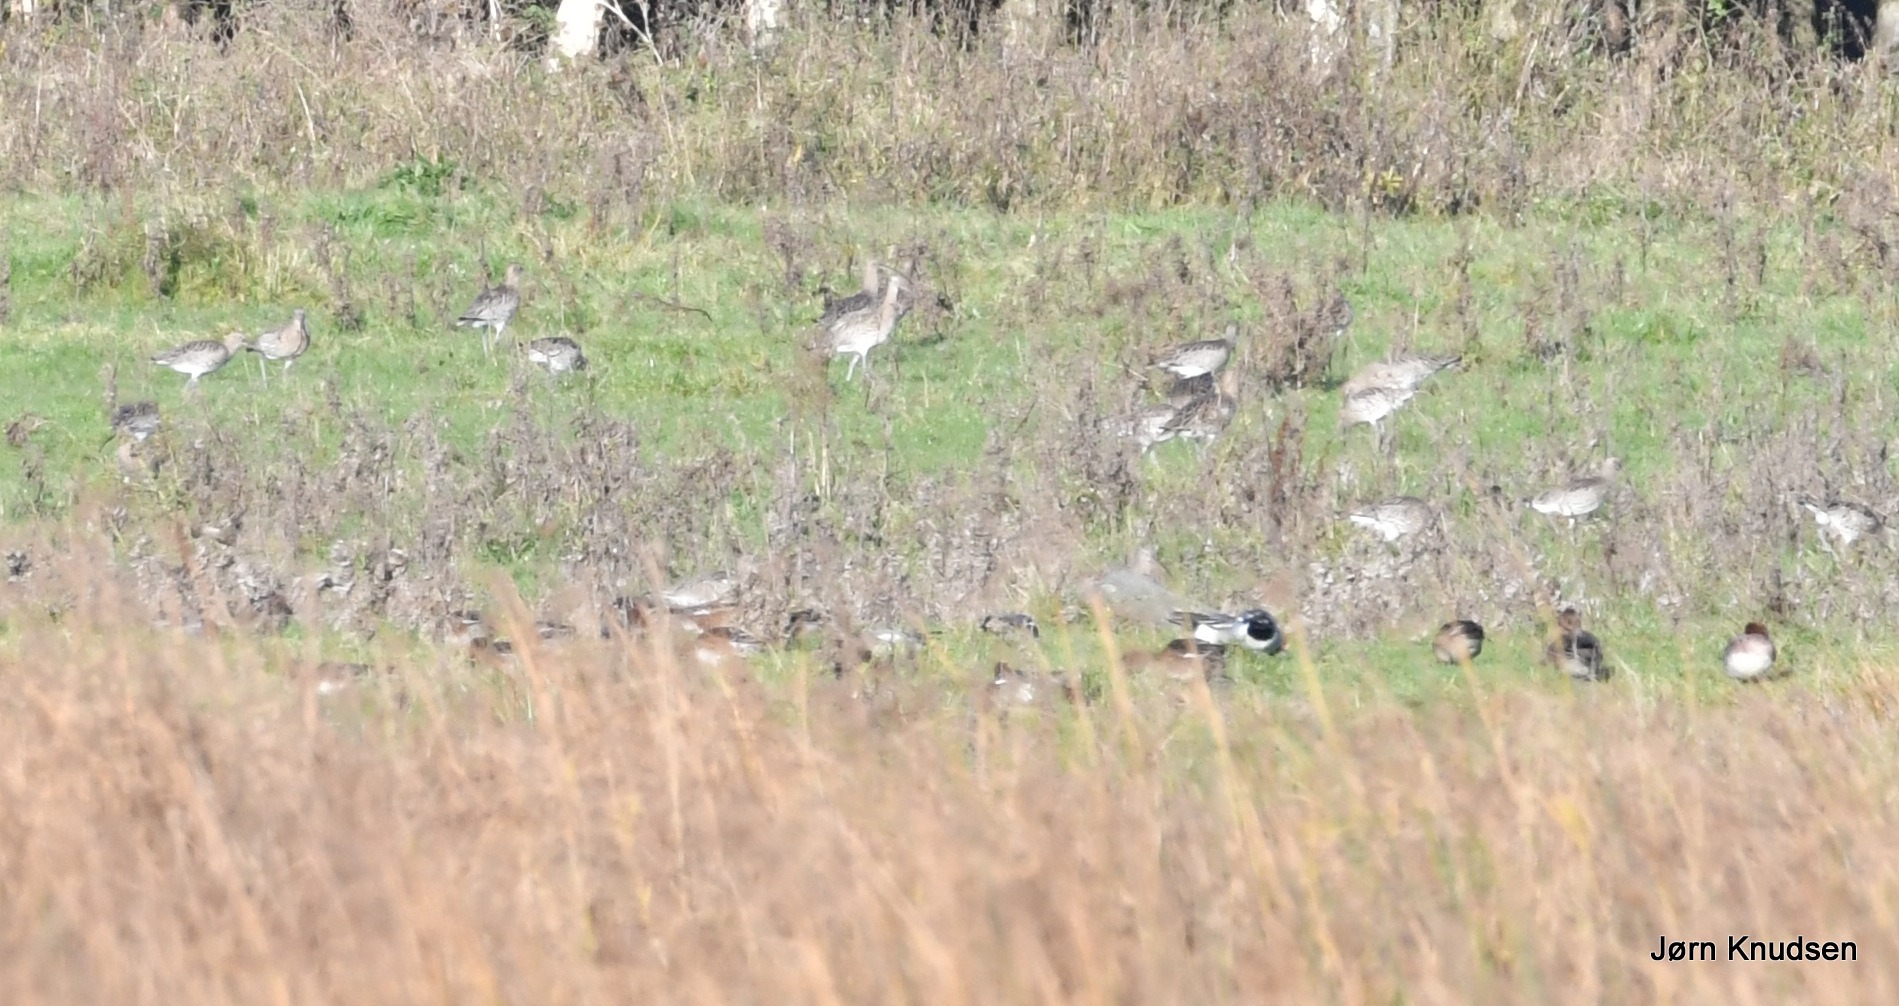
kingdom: Animalia
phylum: Chordata
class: Aves
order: Anseriformes
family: Anatidae
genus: Mareca
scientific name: Mareca penelope
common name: Pibeand
